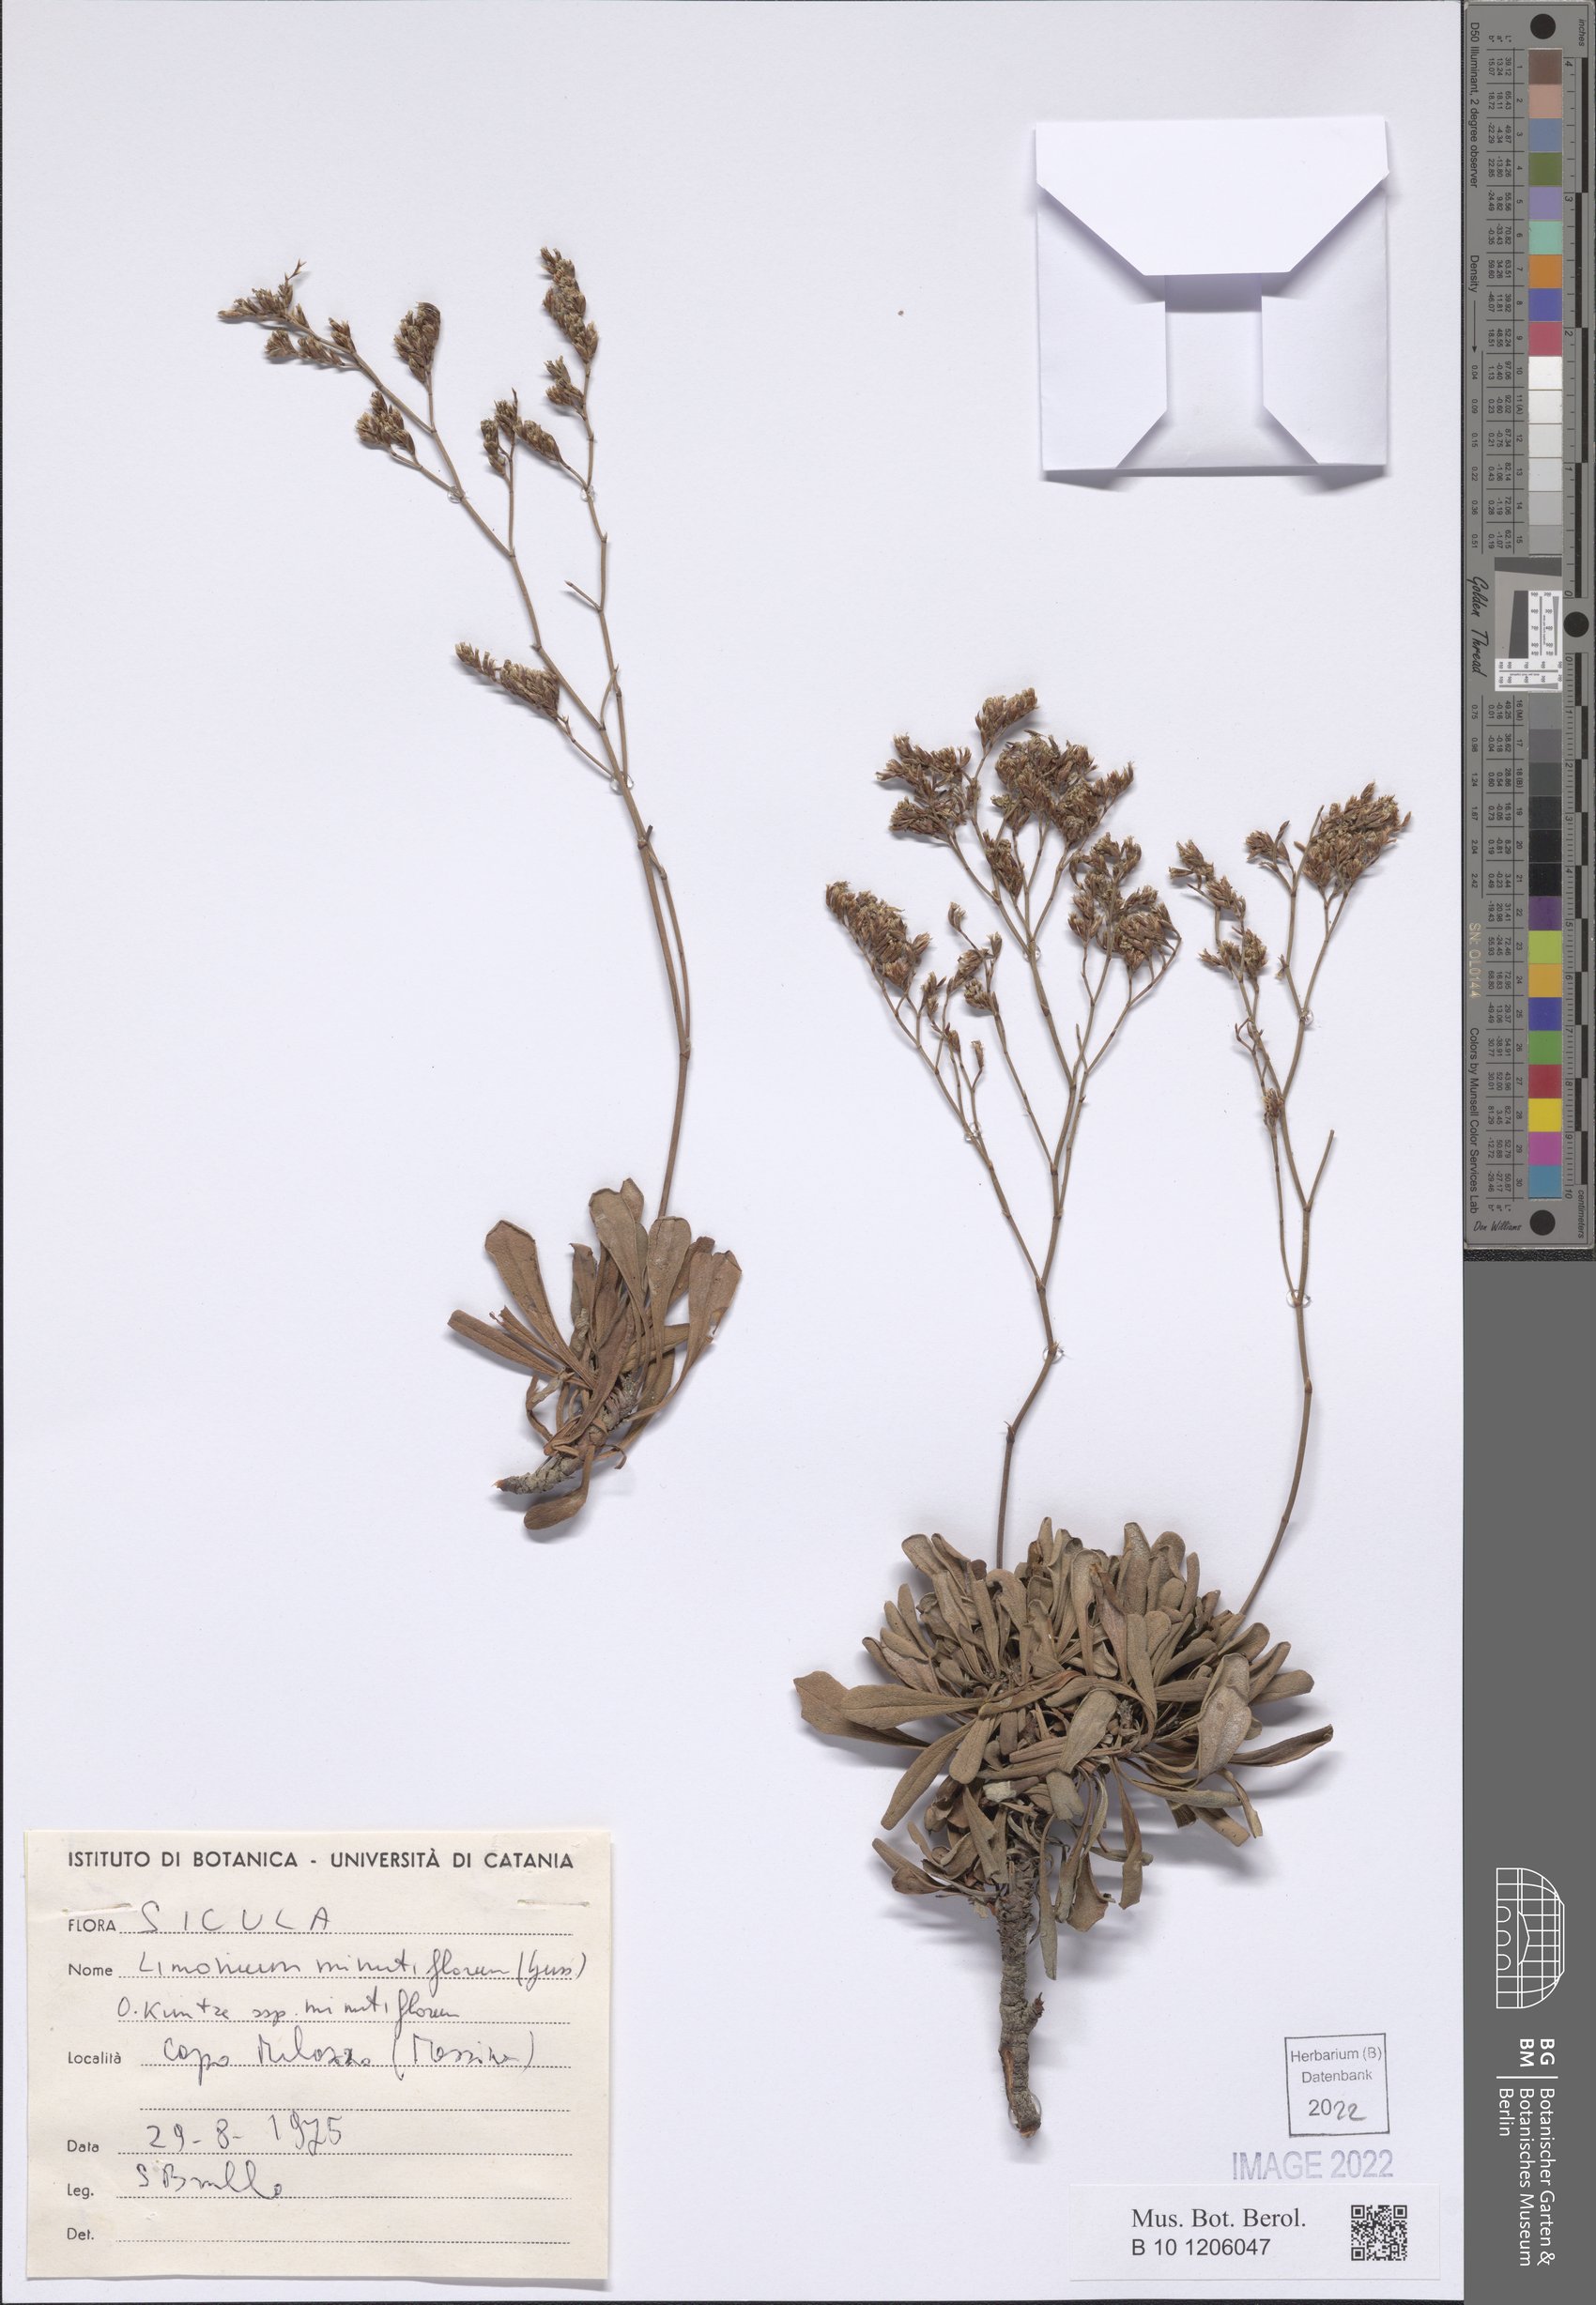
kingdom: Plantae
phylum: Tracheophyta
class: Magnoliopsida
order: Caryophyllales
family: Plumbaginaceae
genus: Limonium
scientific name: Limonium minutiflorum
